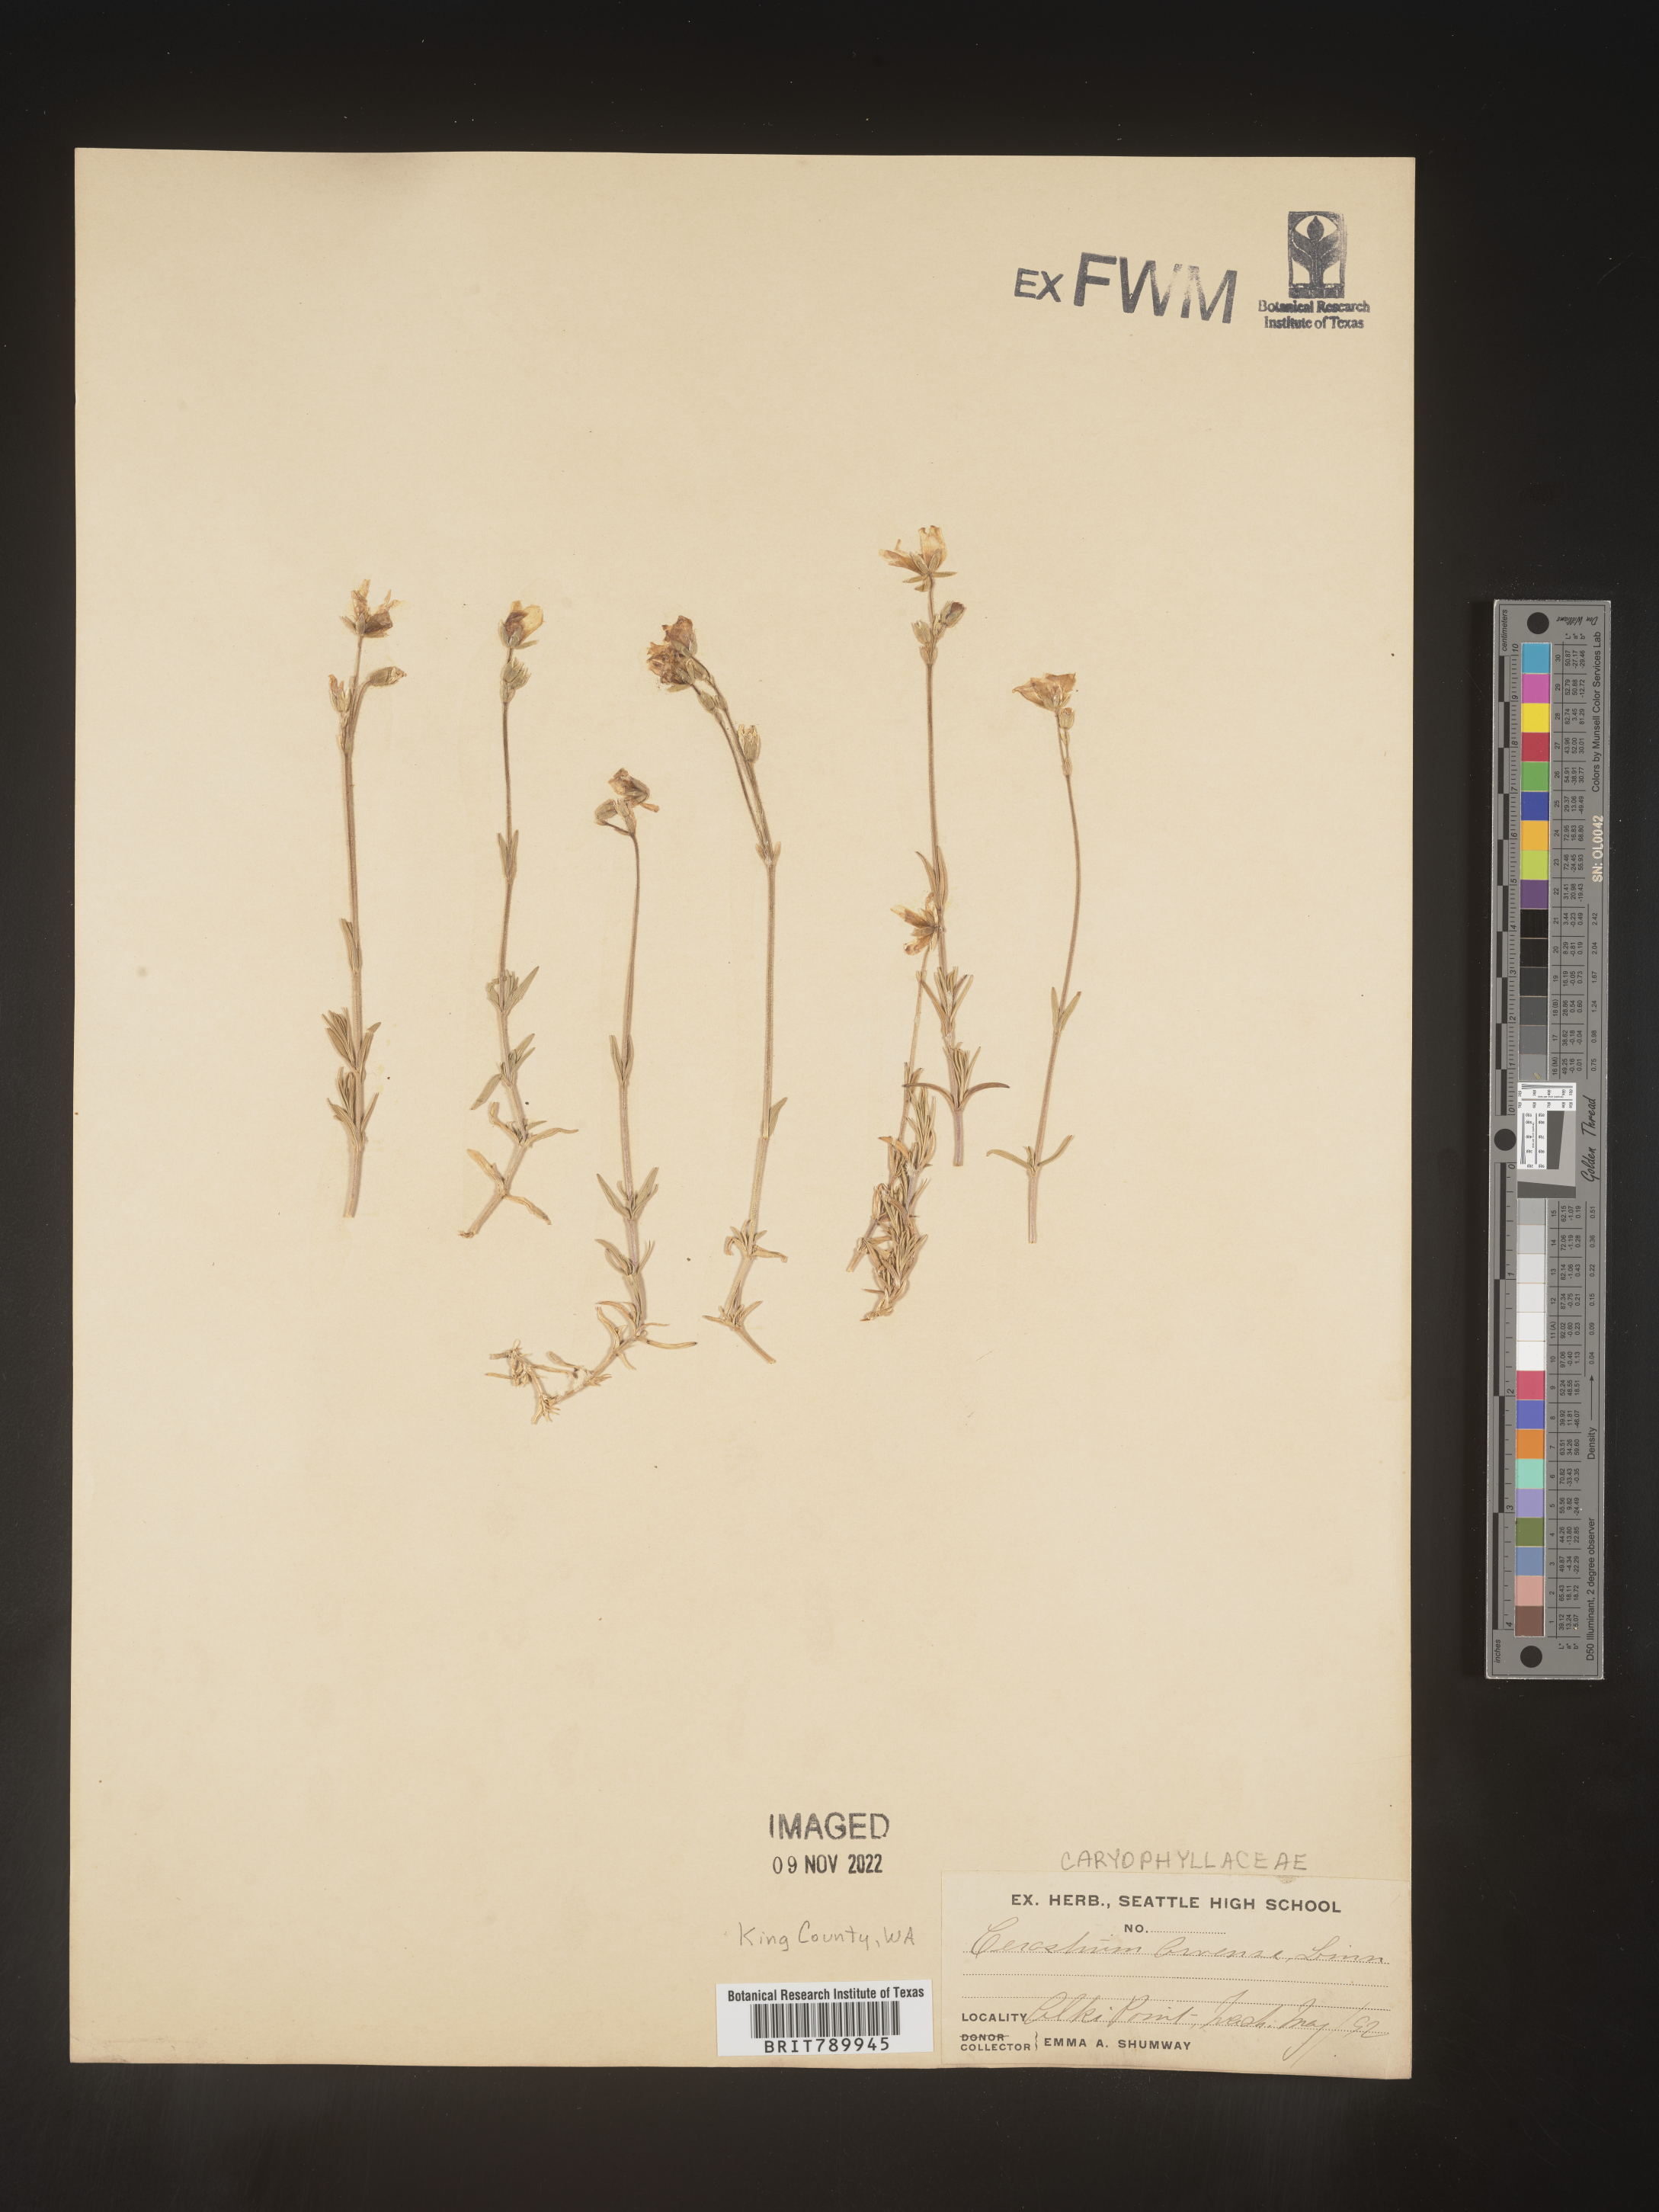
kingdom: Plantae
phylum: Tracheophyta
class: Magnoliopsida
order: Caryophyllales
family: Caryophyllaceae
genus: Cerastium
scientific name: Cerastium arvense
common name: Field mouse-ear
